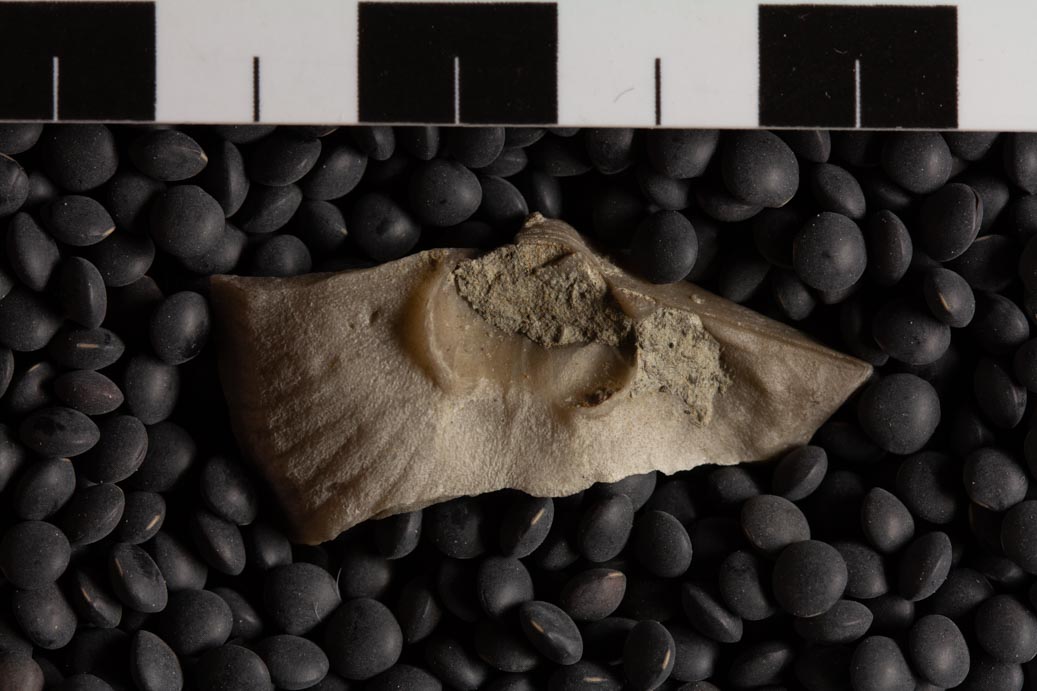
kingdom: Animalia
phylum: Brachiopoda
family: Strophomenidae
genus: Strophomena
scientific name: Strophomena
